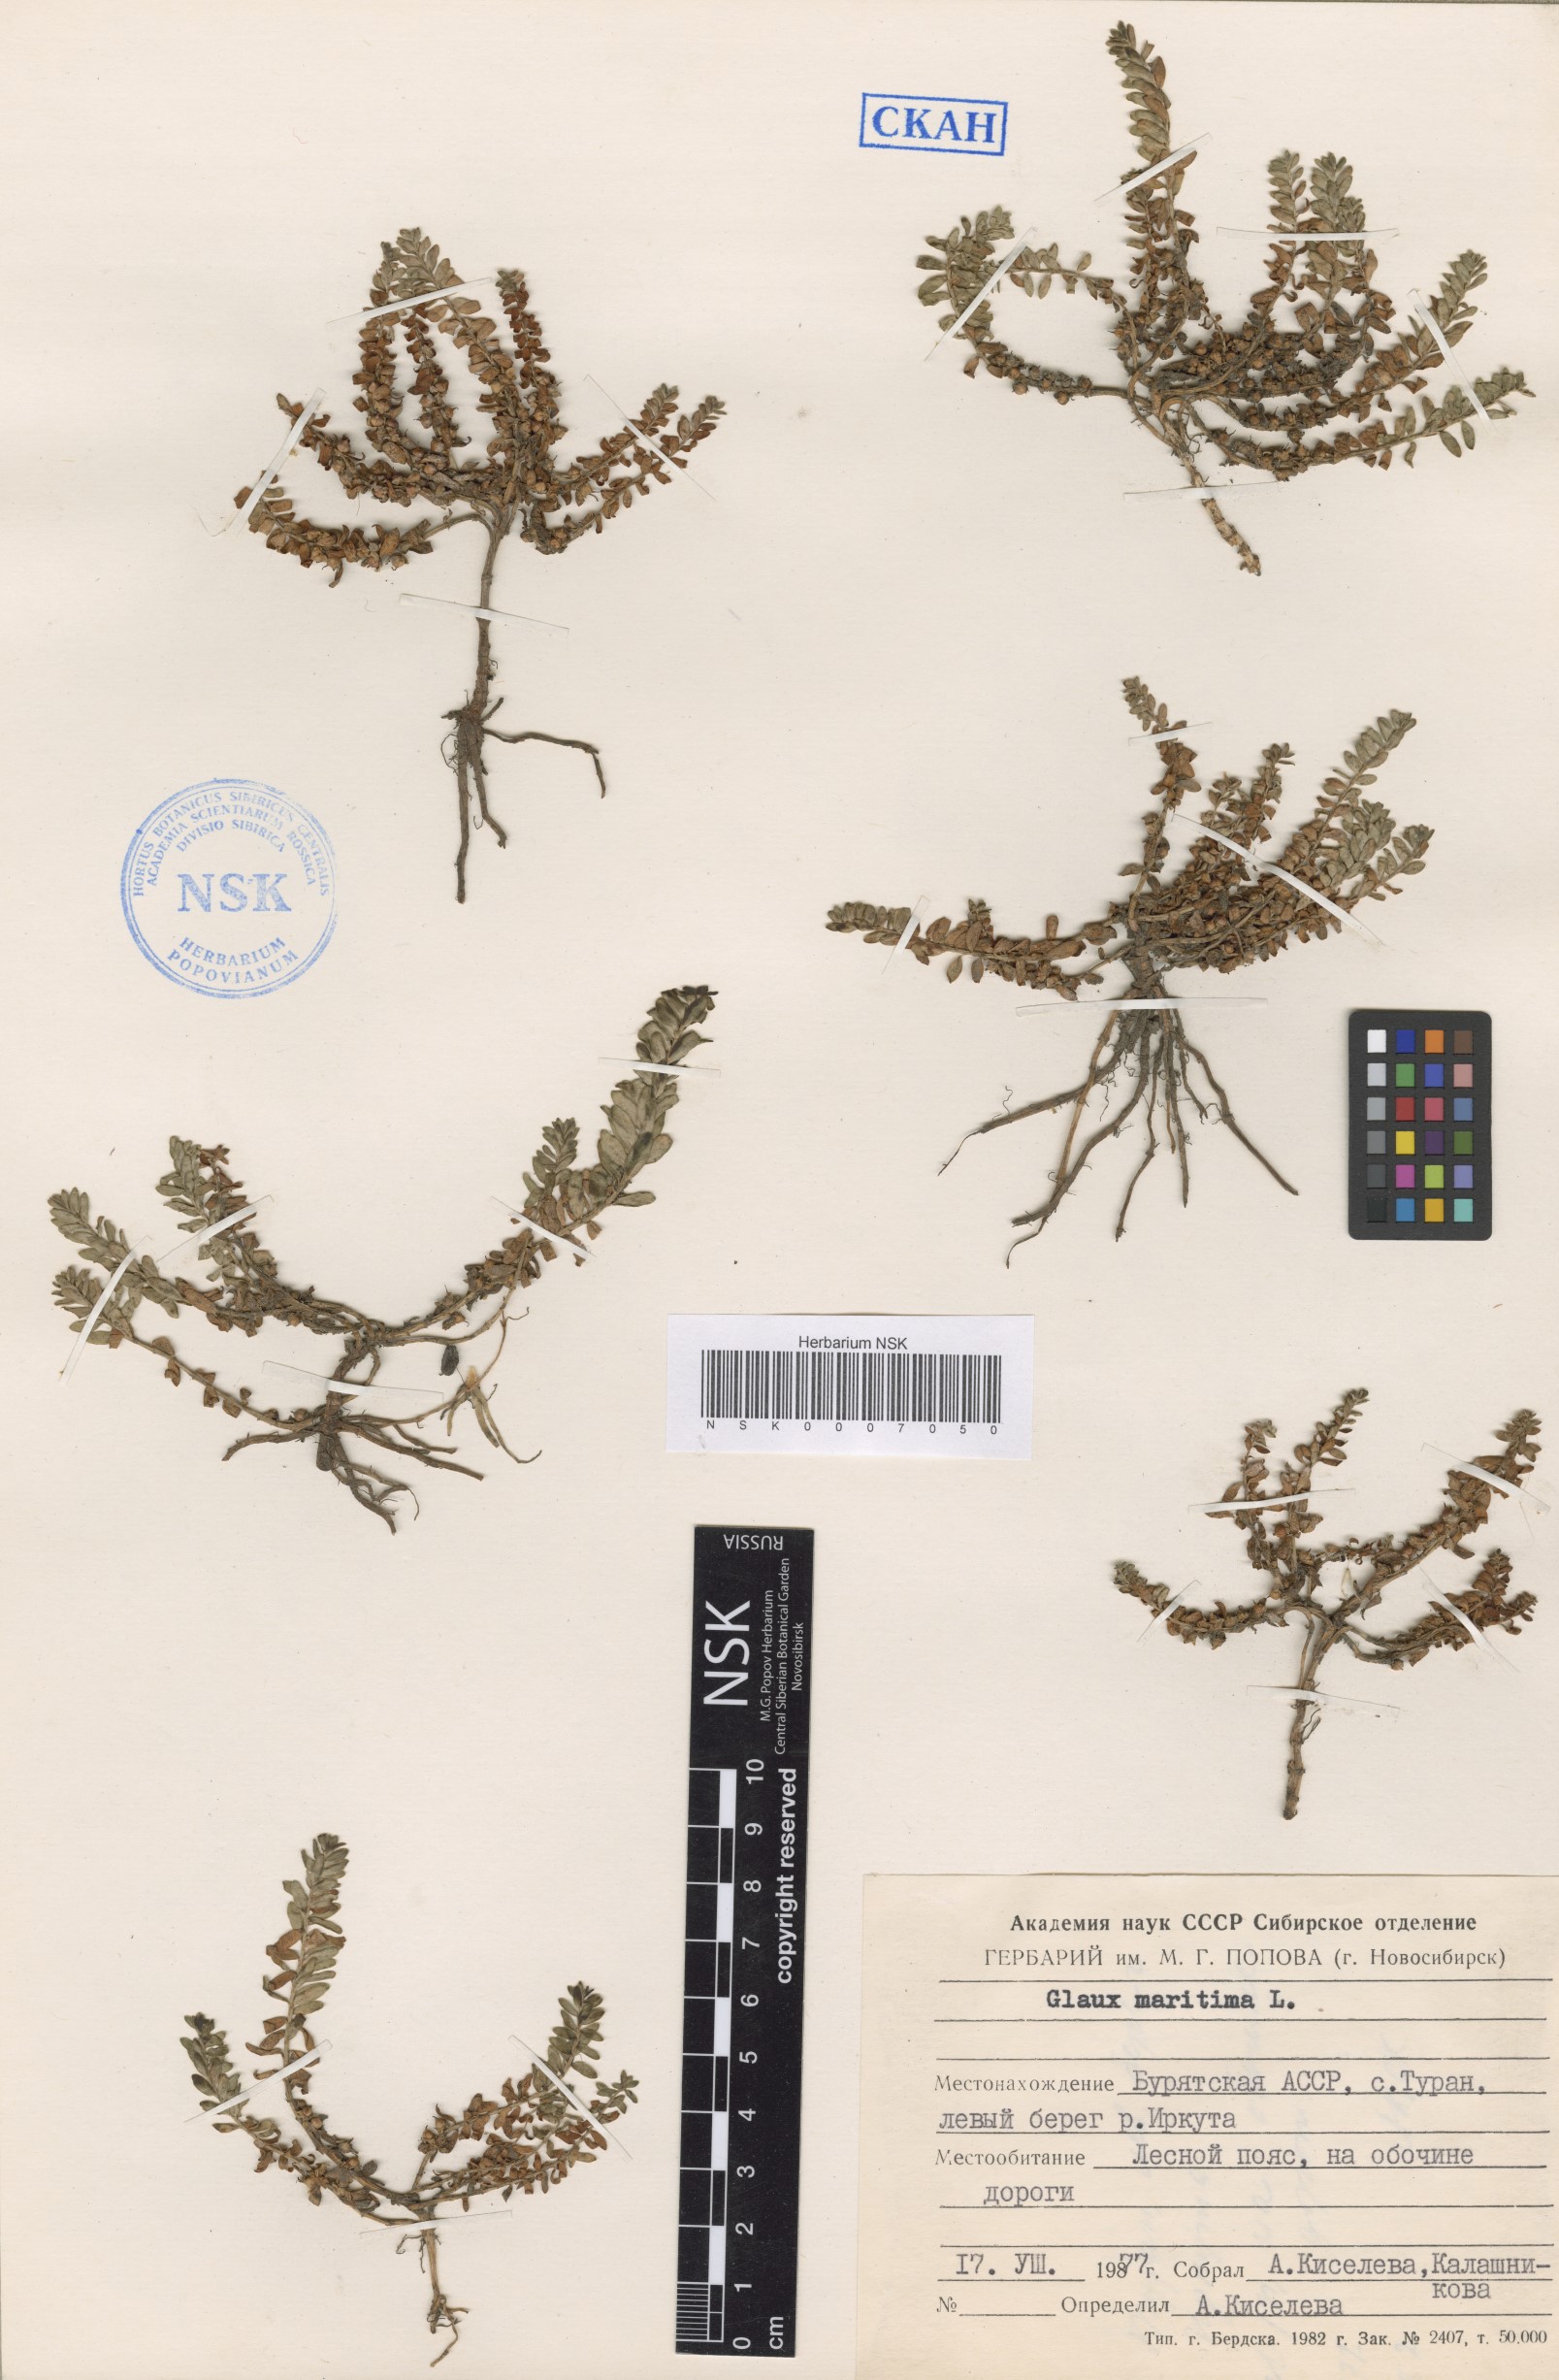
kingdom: Plantae
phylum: Tracheophyta
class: Magnoliopsida
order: Ericales
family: Primulaceae
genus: Lysimachia
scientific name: Lysimachia maritima
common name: Sea milkwort
